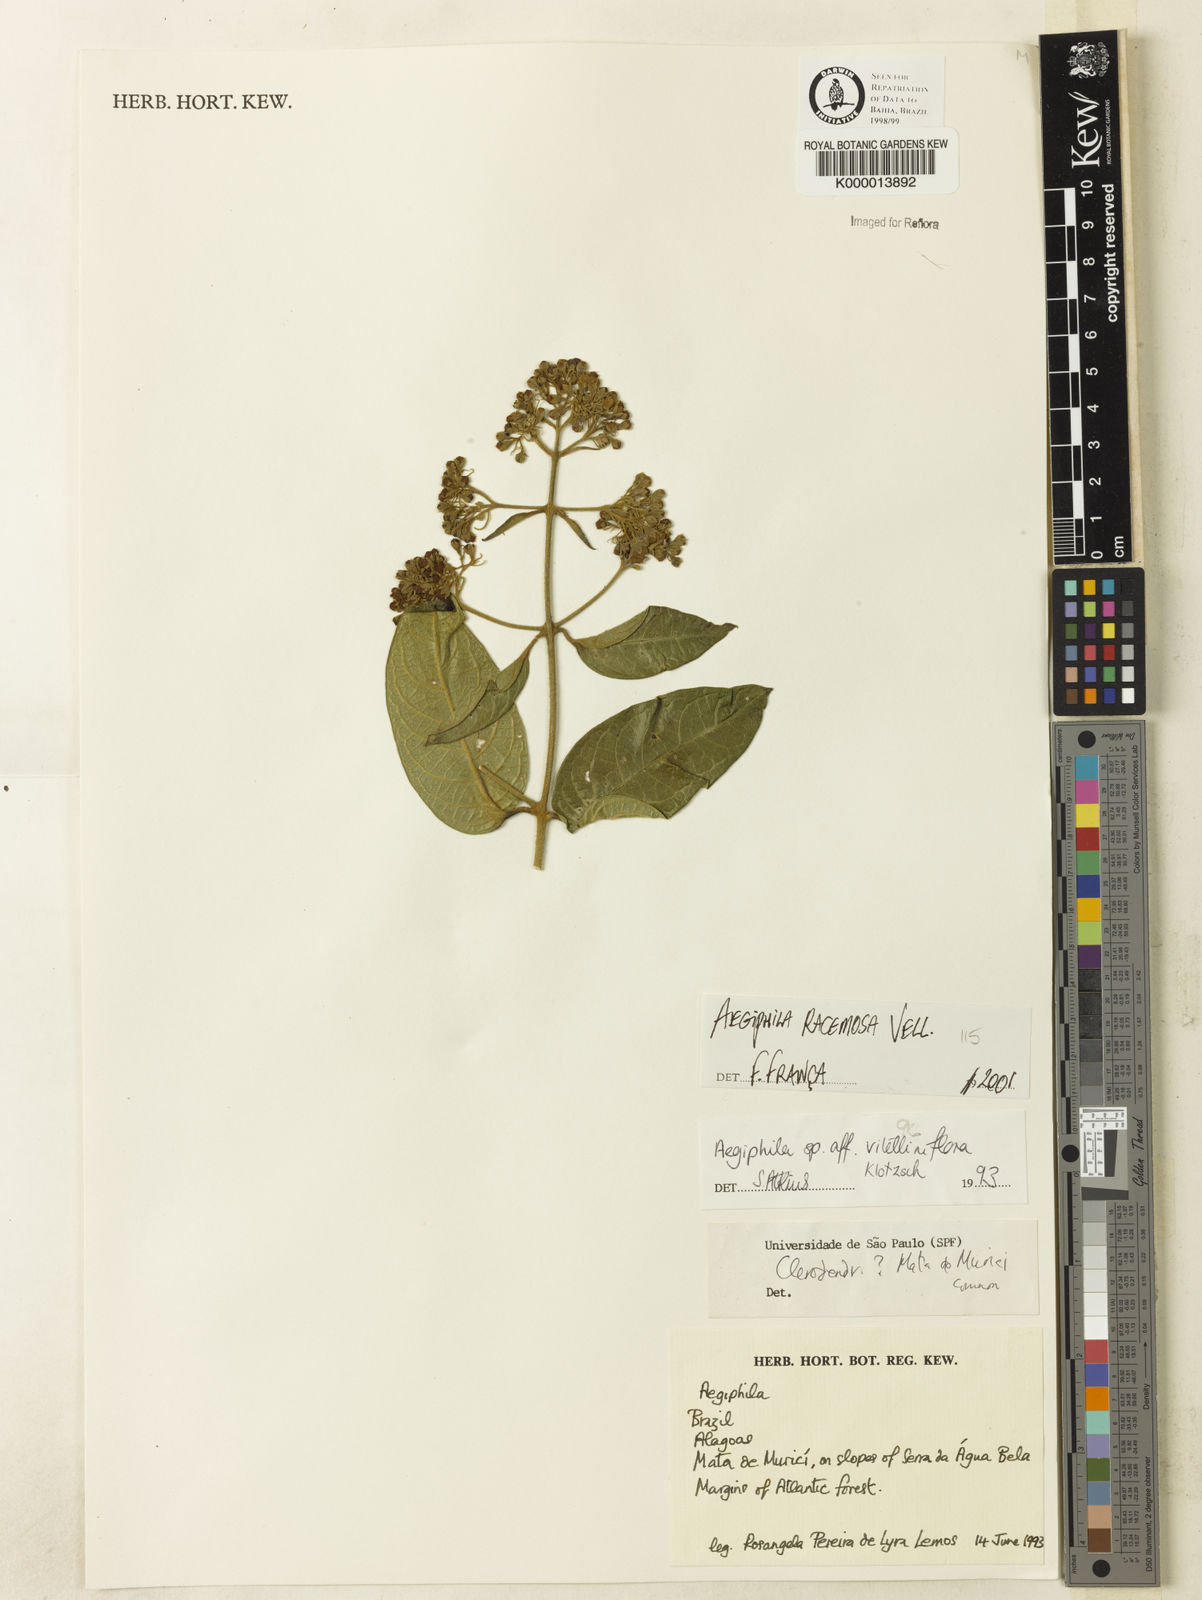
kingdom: Plantae
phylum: Tracheophyta
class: Magnoliopsida
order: Lamiales
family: Lamiaceae
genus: Aegiphila
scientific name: Aegiphila vitelliniflora
